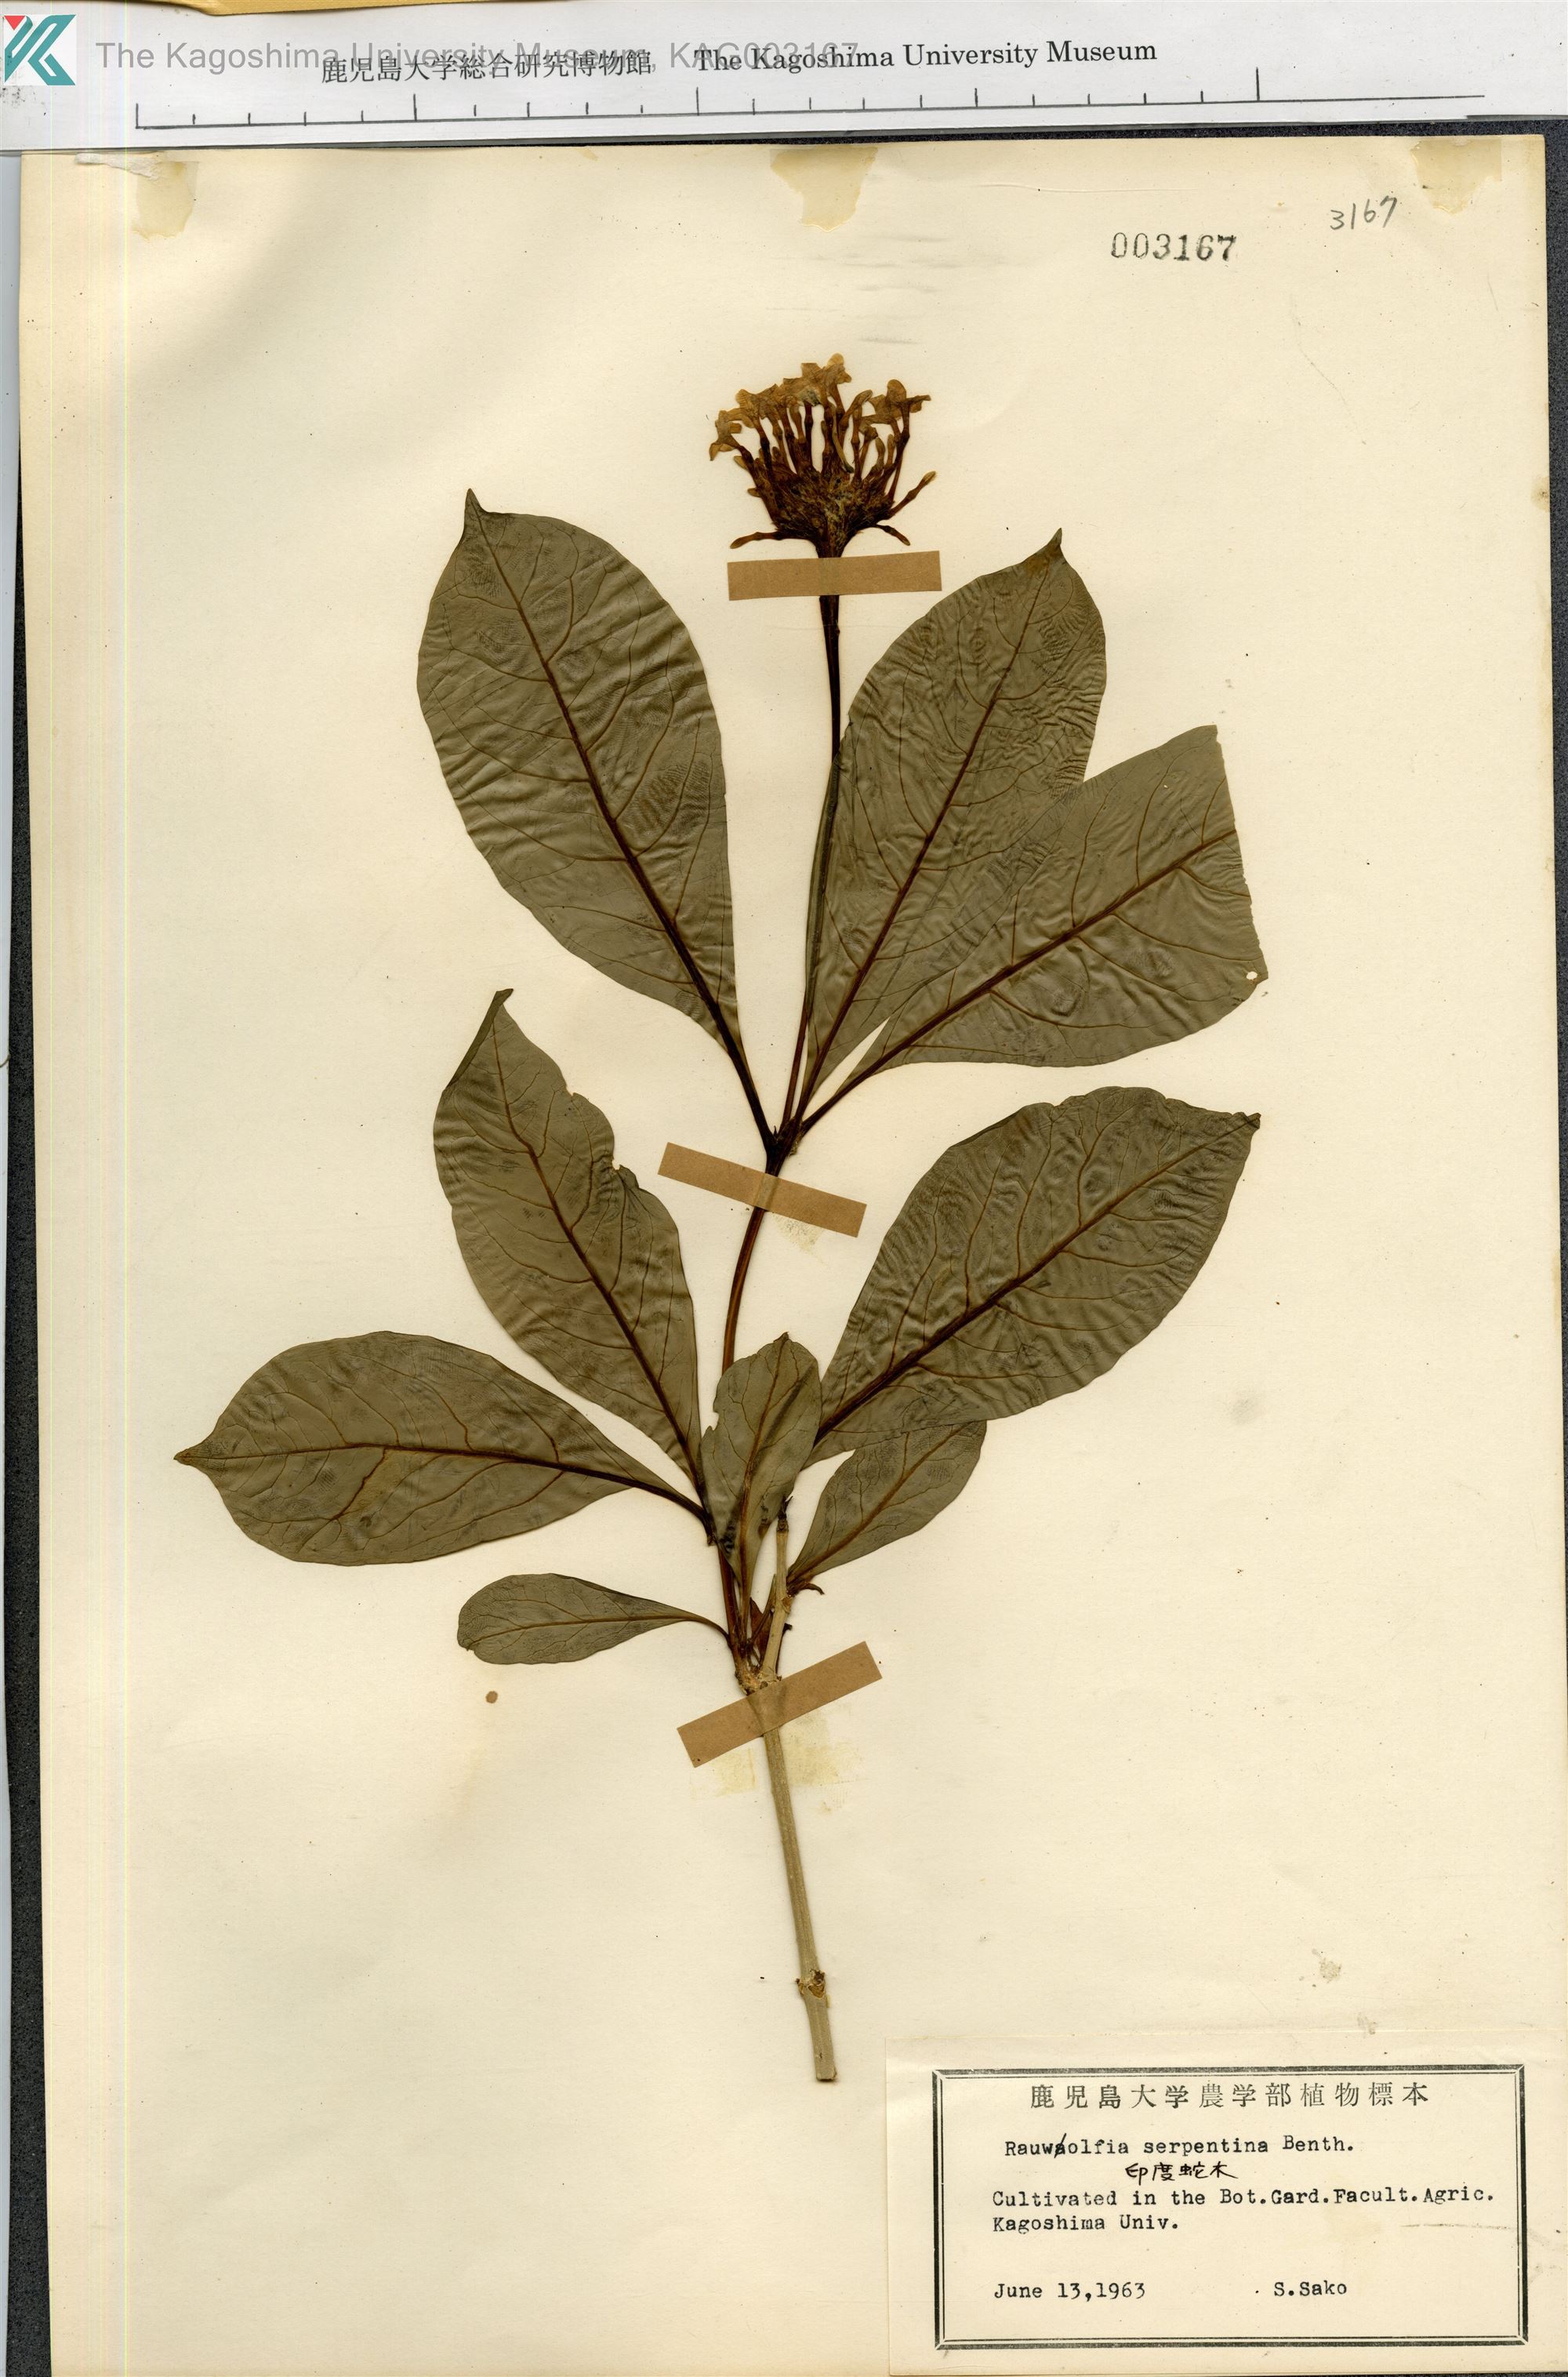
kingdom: Plantae
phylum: Tracheophyta
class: Magnoliopsida
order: Gentianales
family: Apocynaceae
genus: Rauvolfia
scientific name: Rauvolfia serpentina
